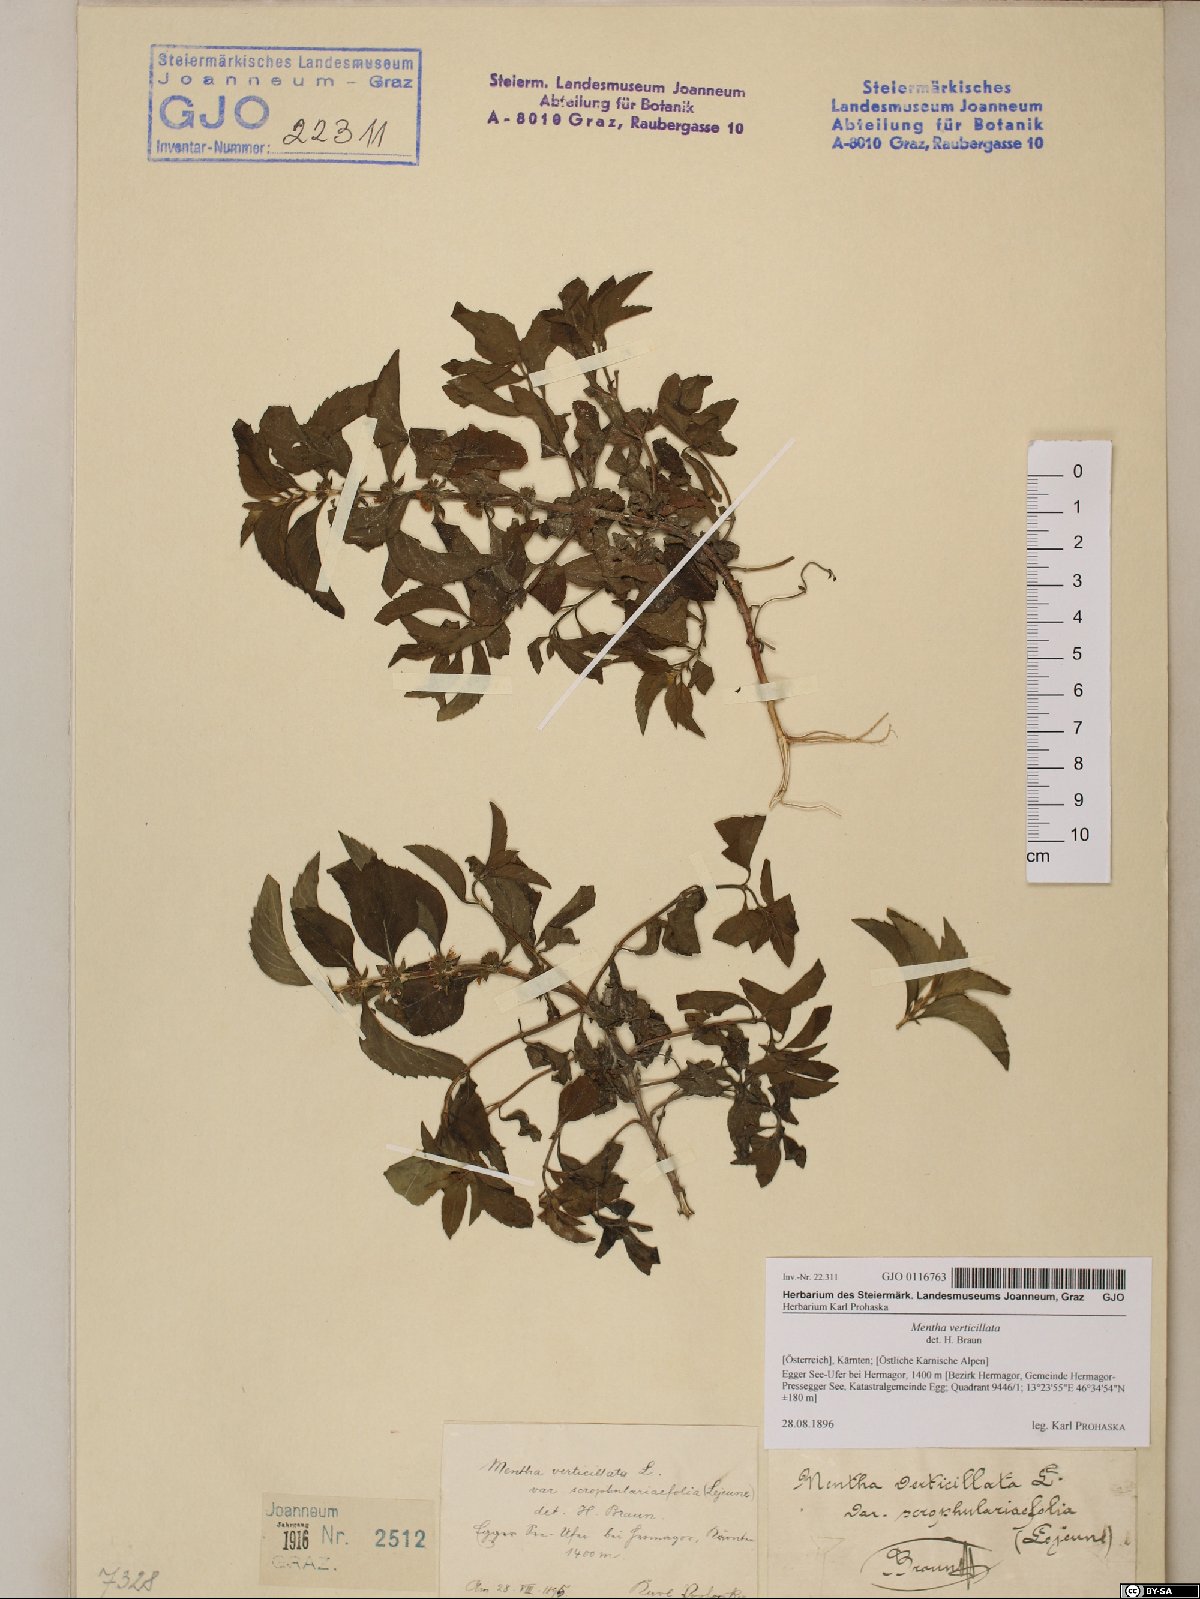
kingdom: Plantae
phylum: Tracheophyta
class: Magnoliopsida
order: Lamiales
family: Lamiaceae
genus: Mentha
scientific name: Mentha verticillata
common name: Mint
